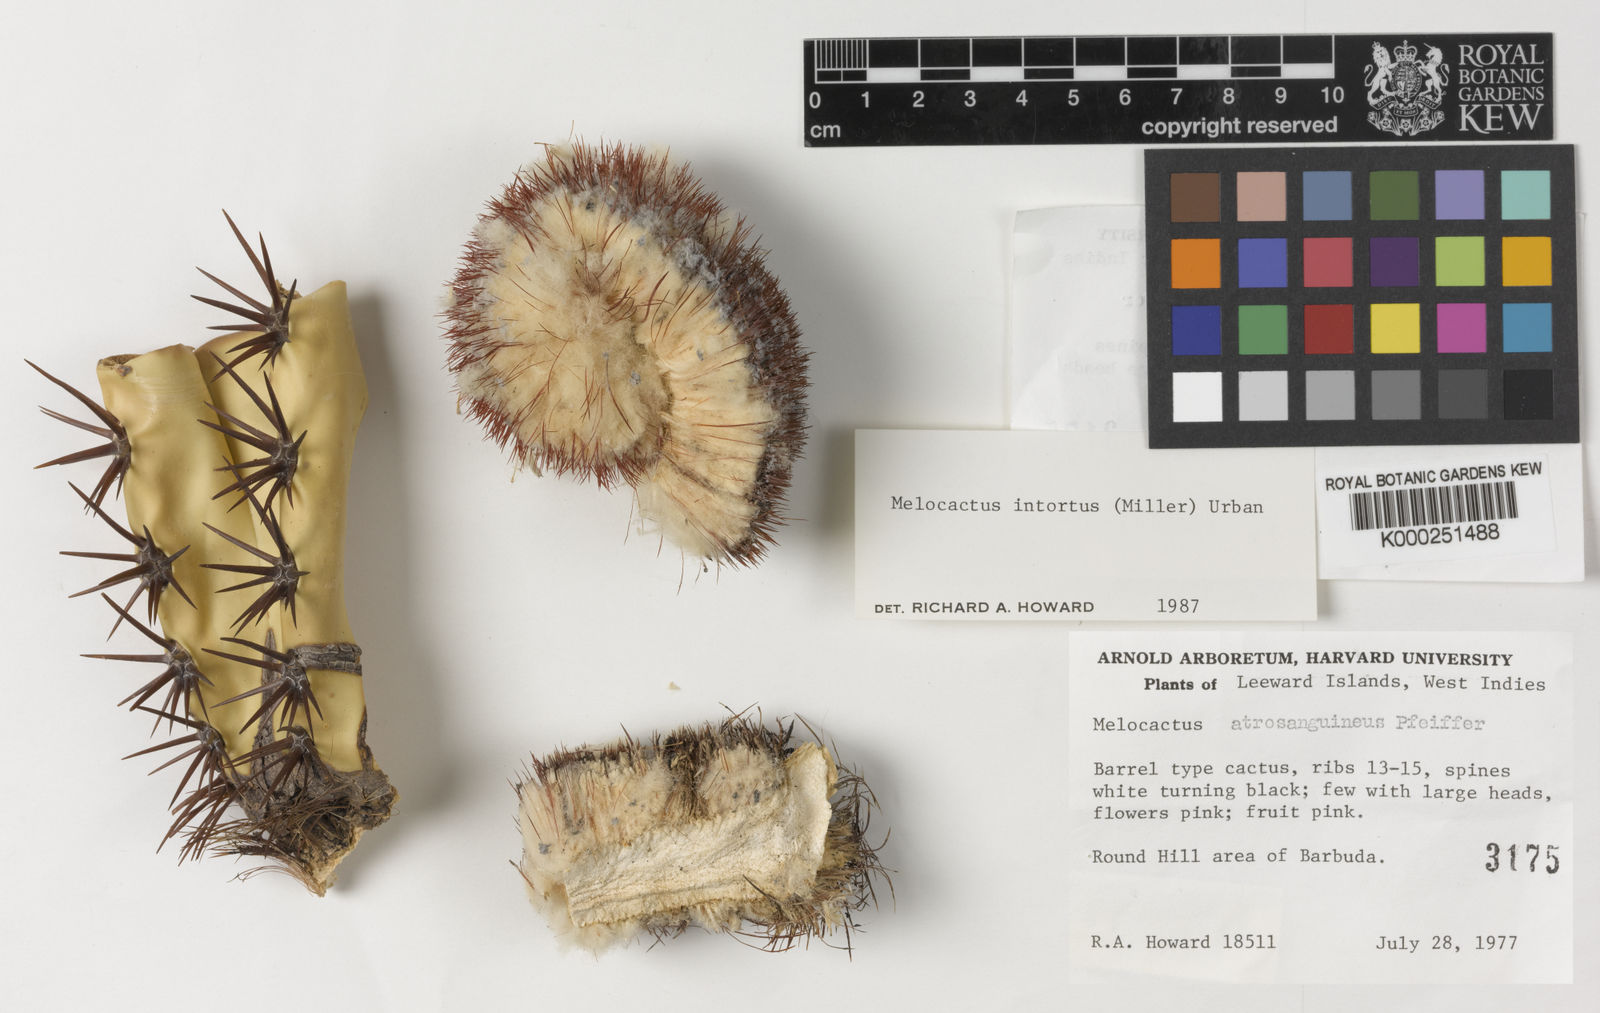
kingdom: Plantae
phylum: Tracheophyta
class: Magnoliopsida
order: Caryophyllales
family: Cactaceae
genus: Melocactus
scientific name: Melocactus
